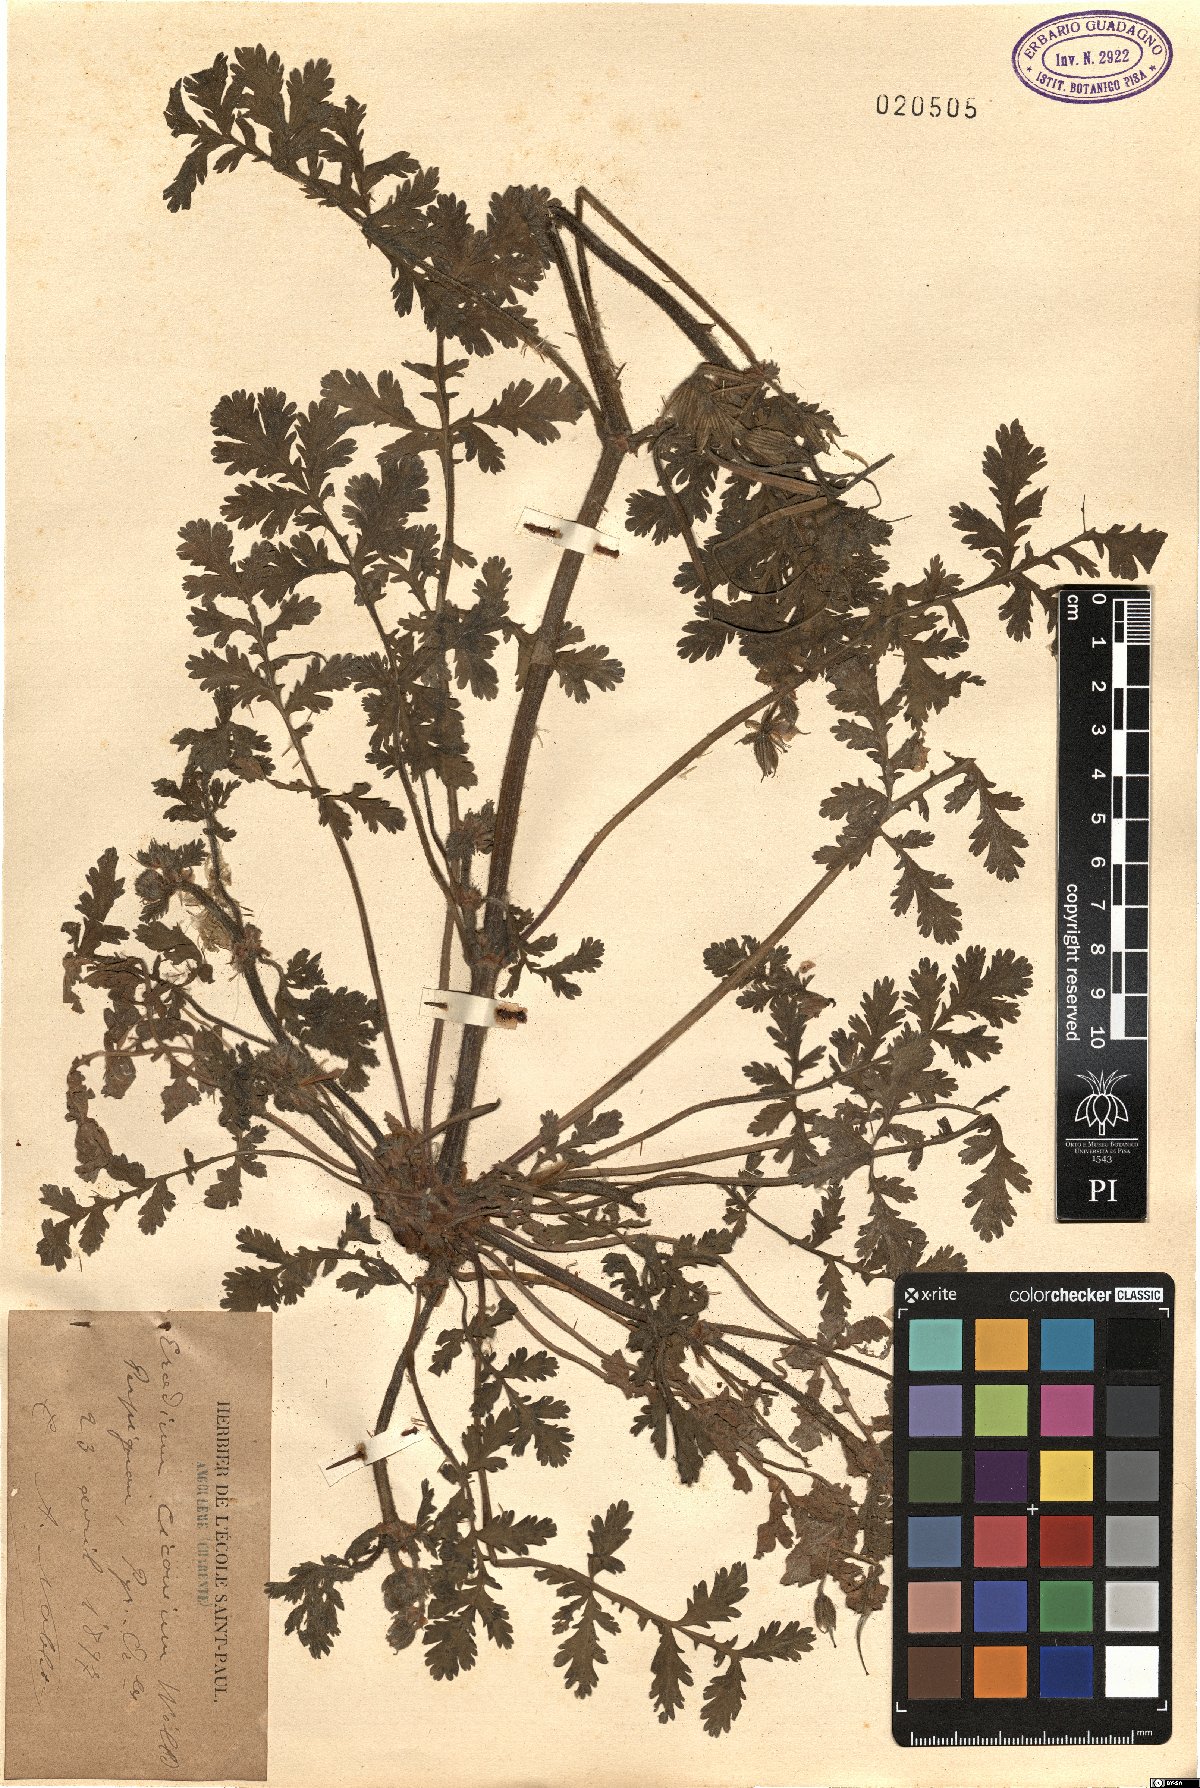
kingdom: Plantae
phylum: Tracheophyta
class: Magnoliopsida
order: Geraniales
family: Geraniaceae
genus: Erodium
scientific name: Erodium ciconium
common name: Common stork's bill
